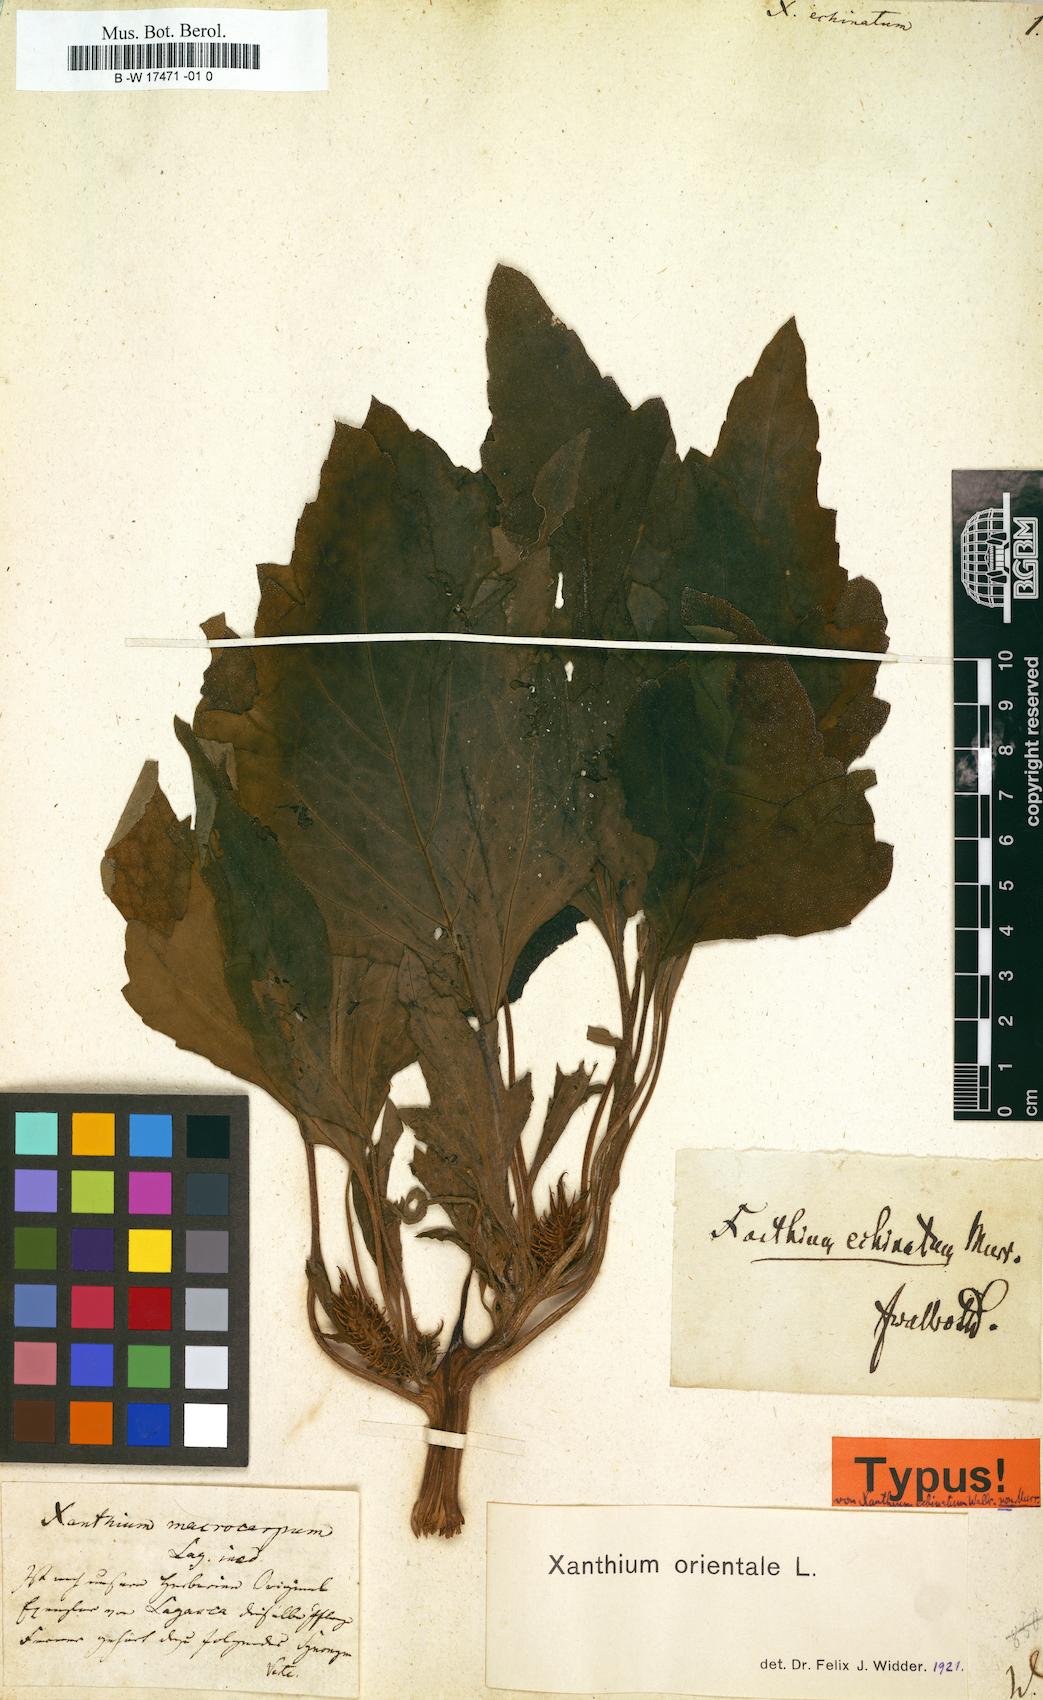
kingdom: Plantae
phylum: Tracheophyta
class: Magnoliopsida
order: Asterales
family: Asteraceae
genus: Xanthium
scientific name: Xanthium orientale
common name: Californian burr
